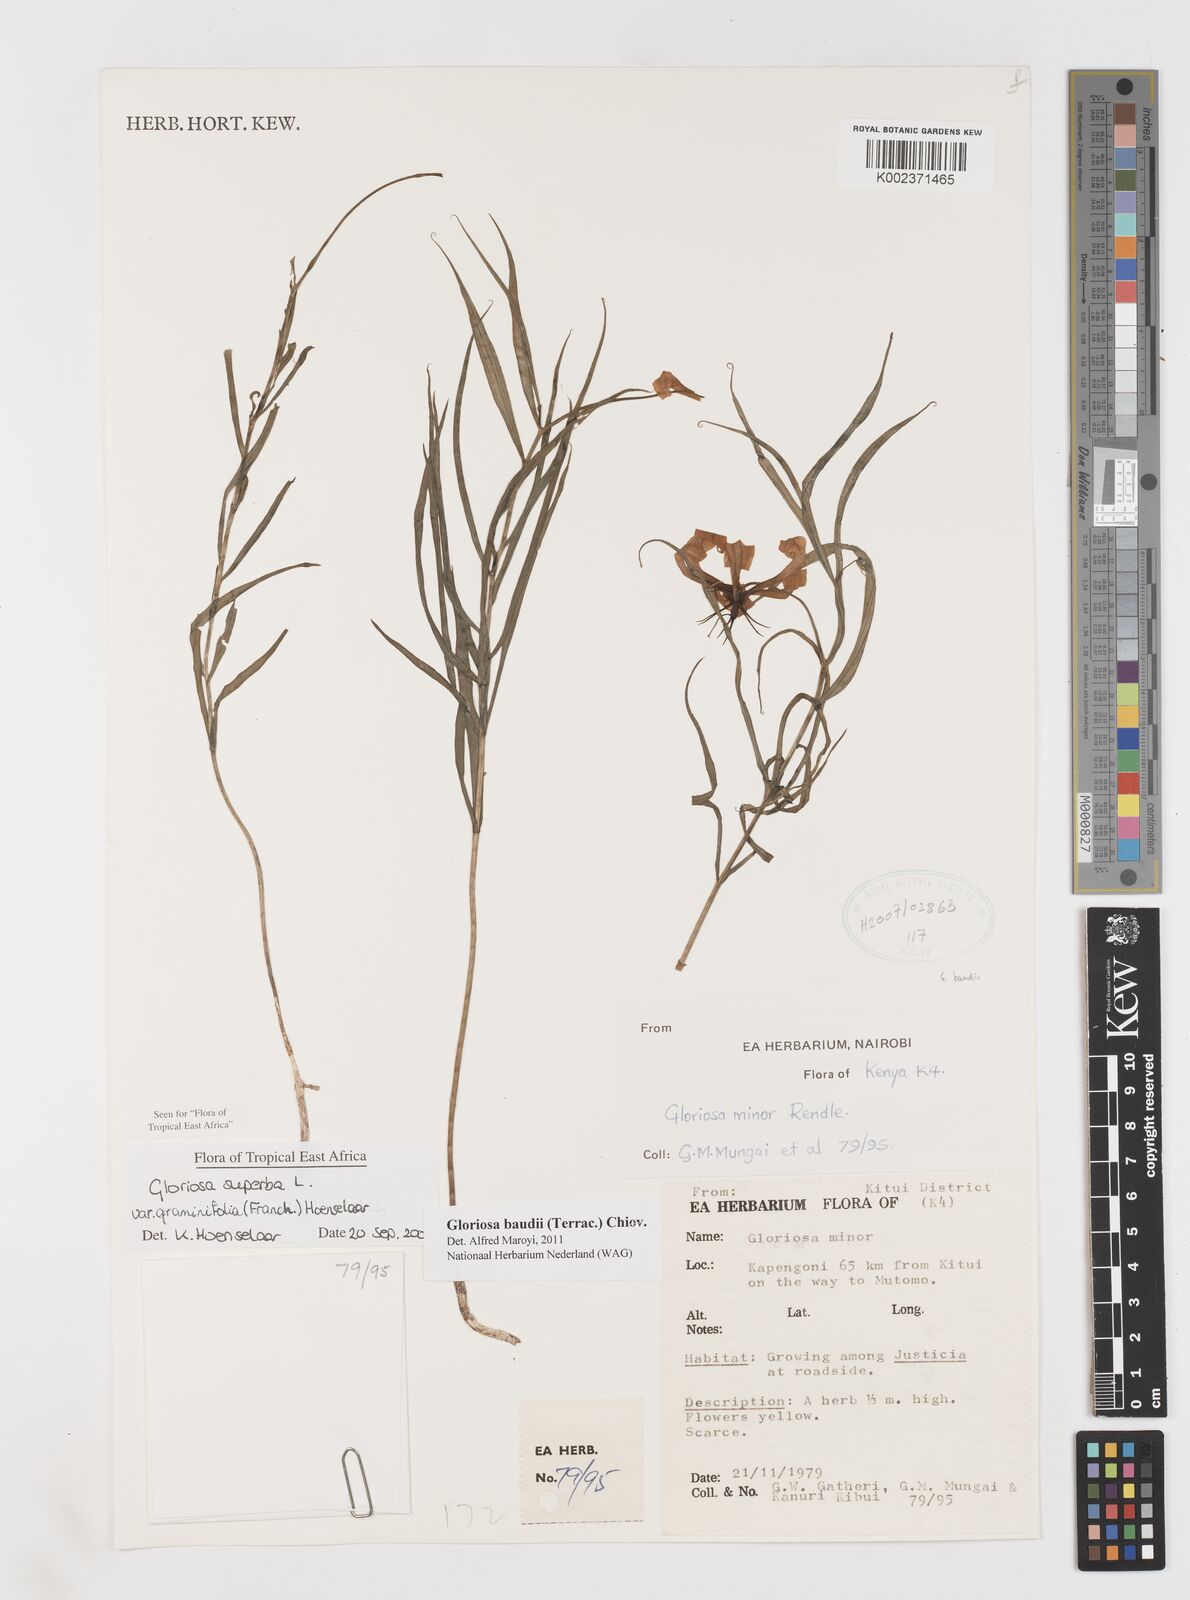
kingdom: Plantae
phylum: Tracheophyta
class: Liliopsida
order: Liliales
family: Colchicaceae
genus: Gloriosa
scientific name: Gloriosa baudii
